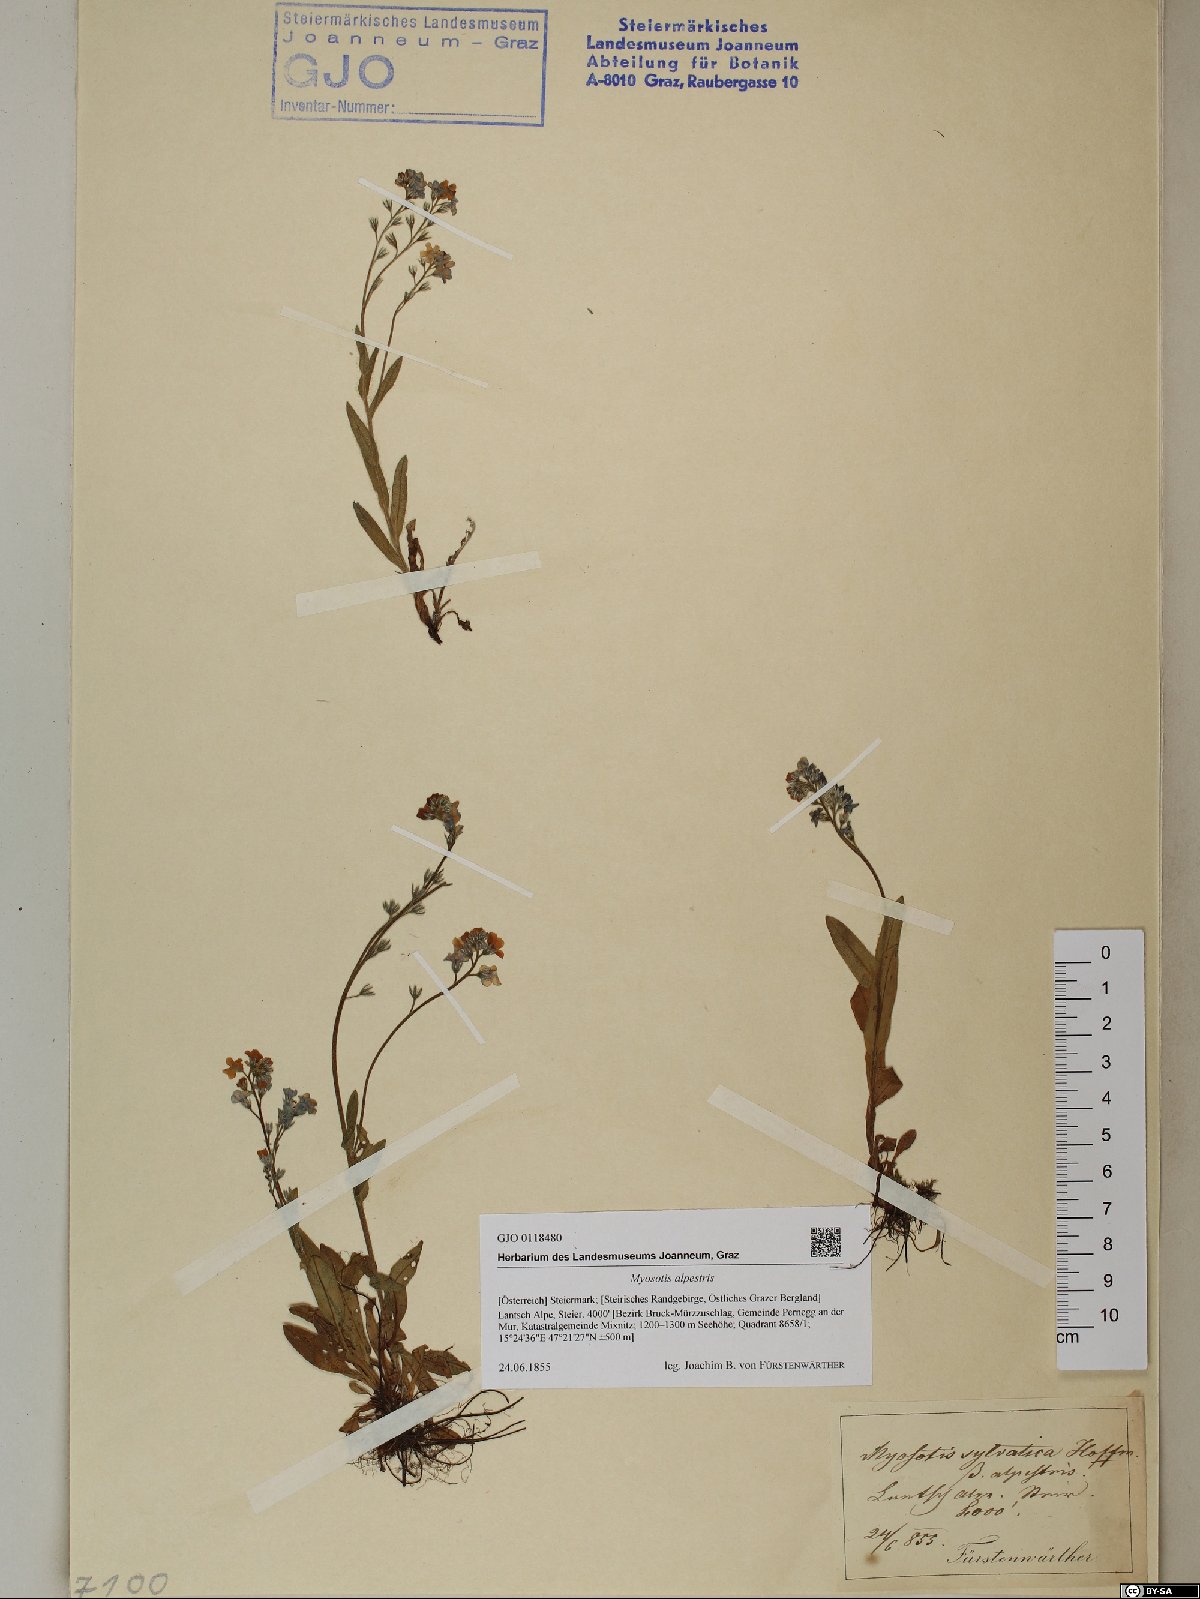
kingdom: Plantae
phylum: Tracheophyta
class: Magnoliopsida
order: Boraginales
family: Boraginaceae
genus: Myosotis
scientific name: Myosotis alpestris
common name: Alpine forget-me-not
